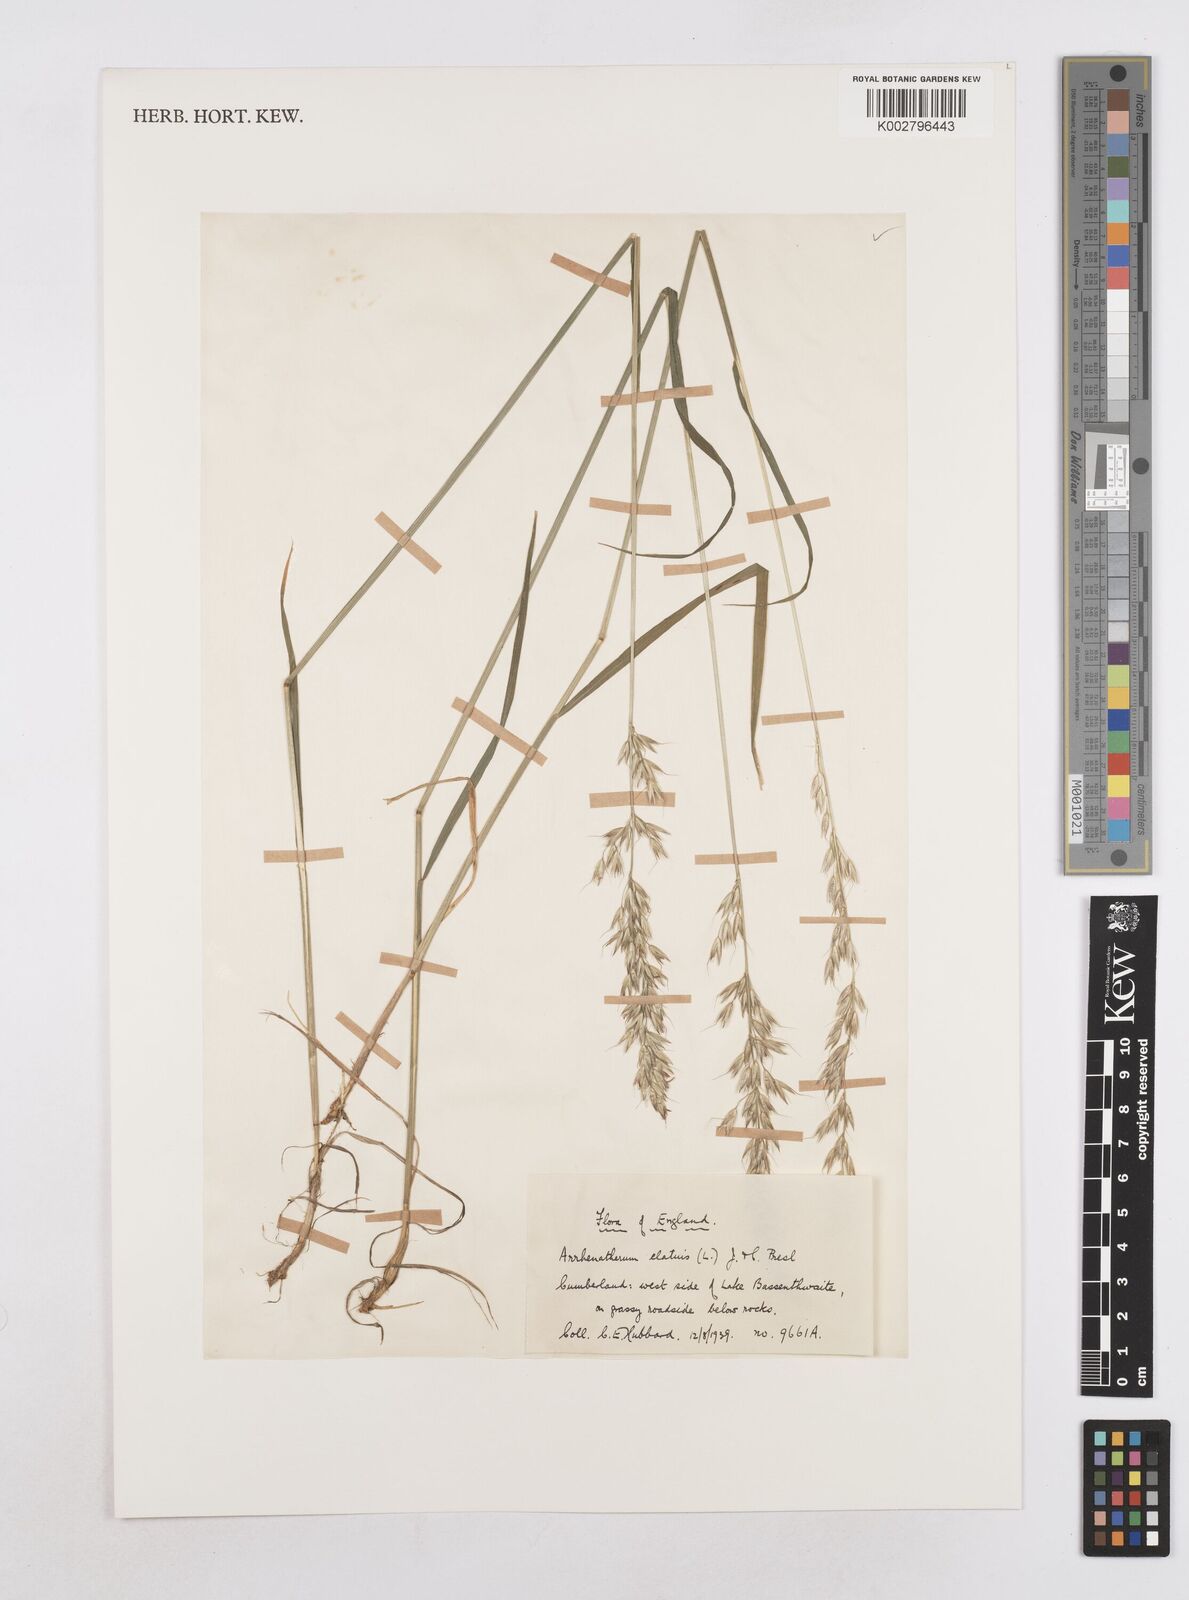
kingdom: Plantae
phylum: Tracheophyta
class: Liliopsida
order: Poales
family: Poaceae
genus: Arrhenatherum
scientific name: Arrhenatherum elatius
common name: Tall oatgrass
